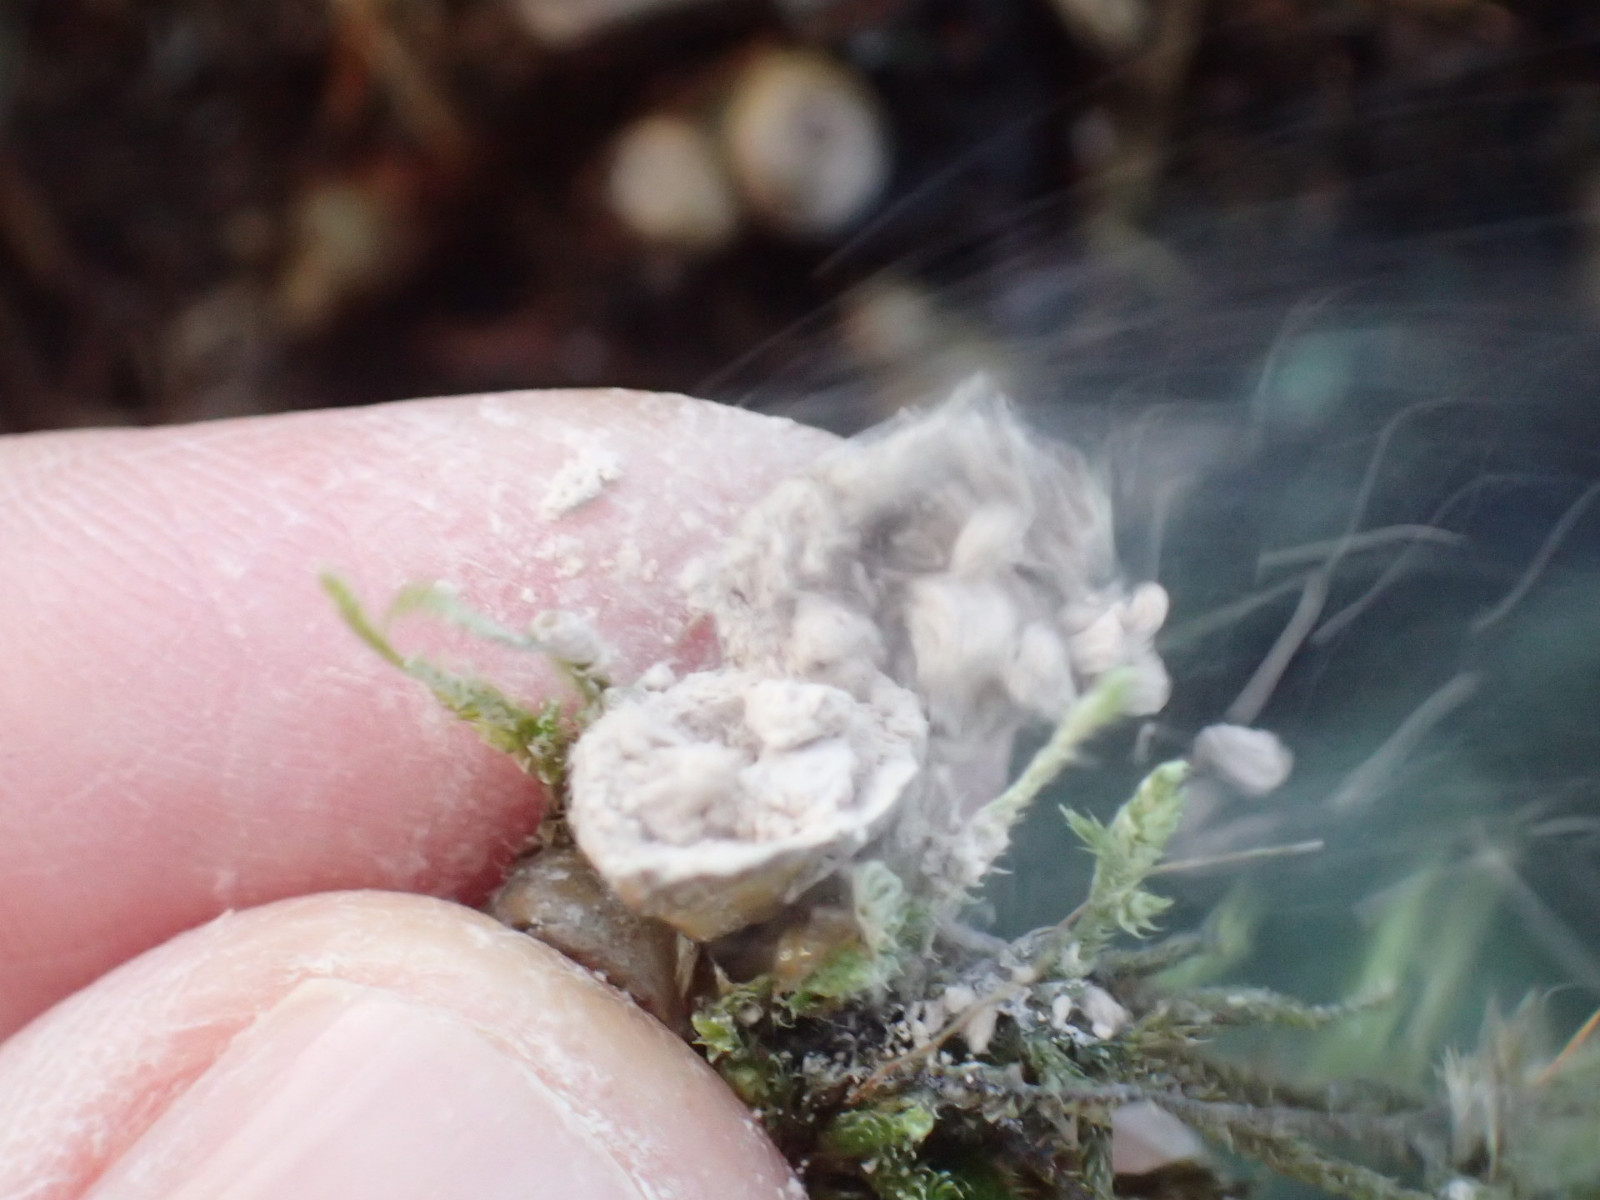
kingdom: Protozoa
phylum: Mycetozoa
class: Myxomycetes
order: Cribrariales
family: Tubiferaceae
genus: Lycogala
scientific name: Lycogala epidendrum
